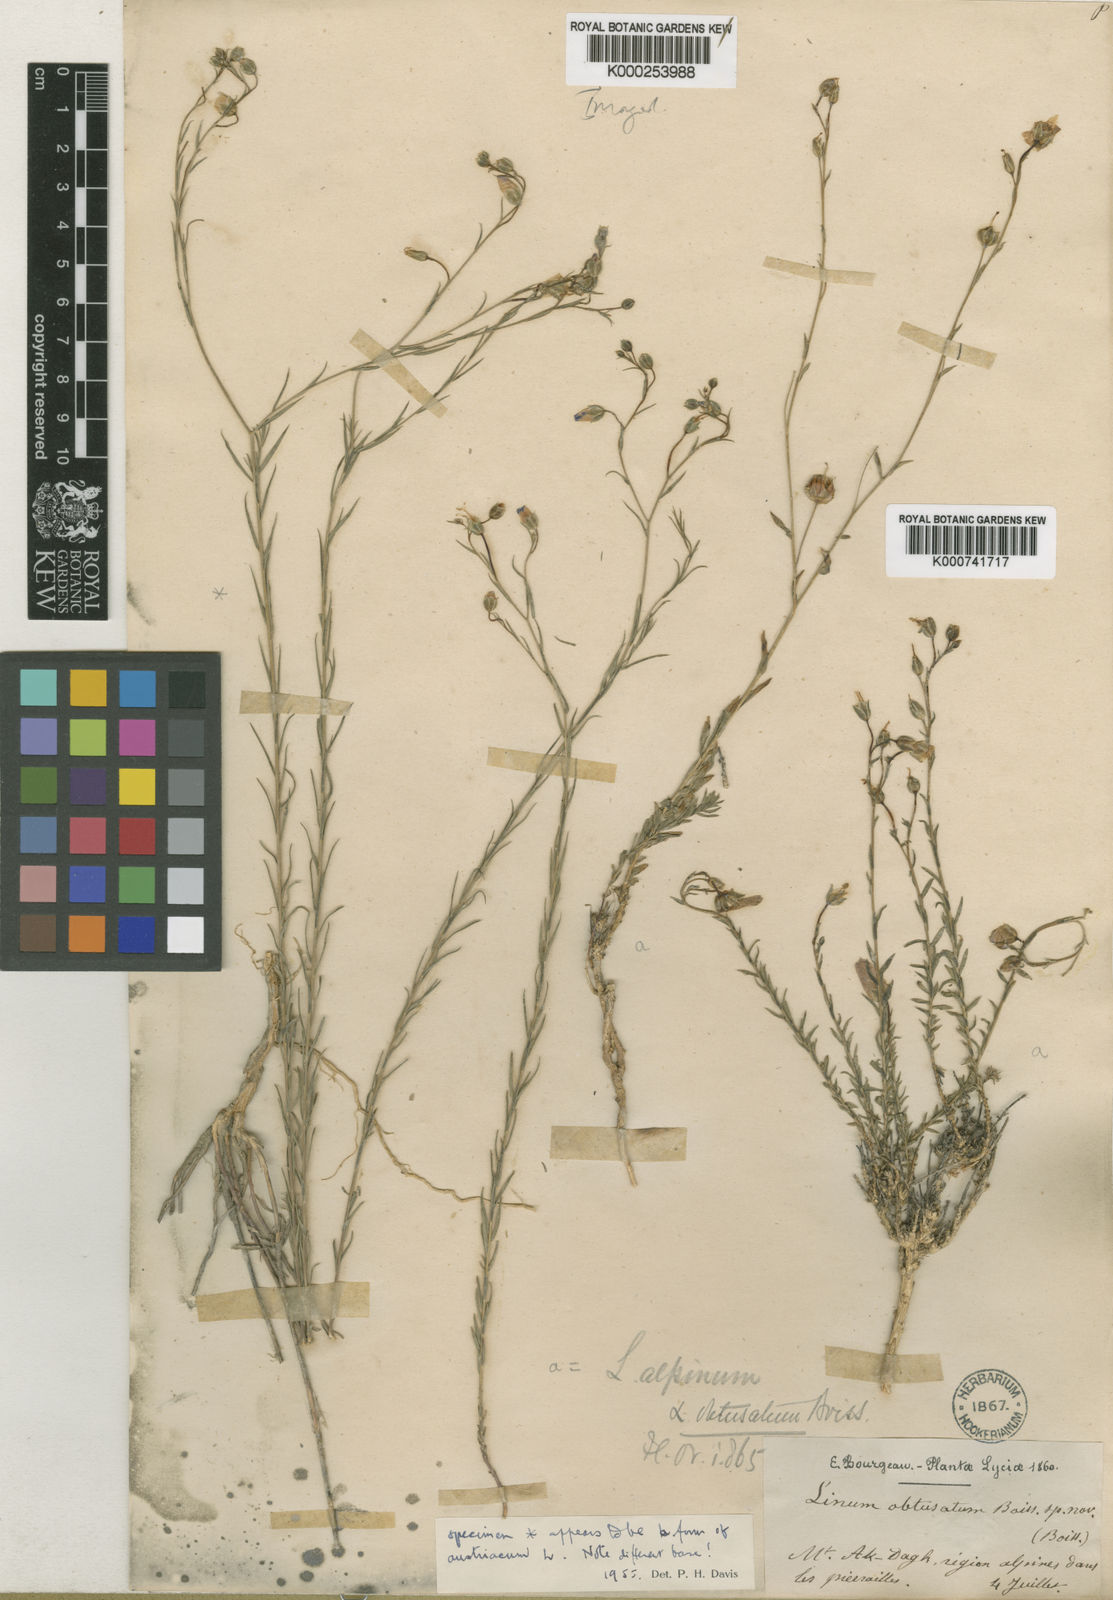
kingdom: Plantae
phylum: Tracheophyta
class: Magnoliopsida
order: Malpighiales
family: Linaceae
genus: Linum
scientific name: Linum obtusatum
